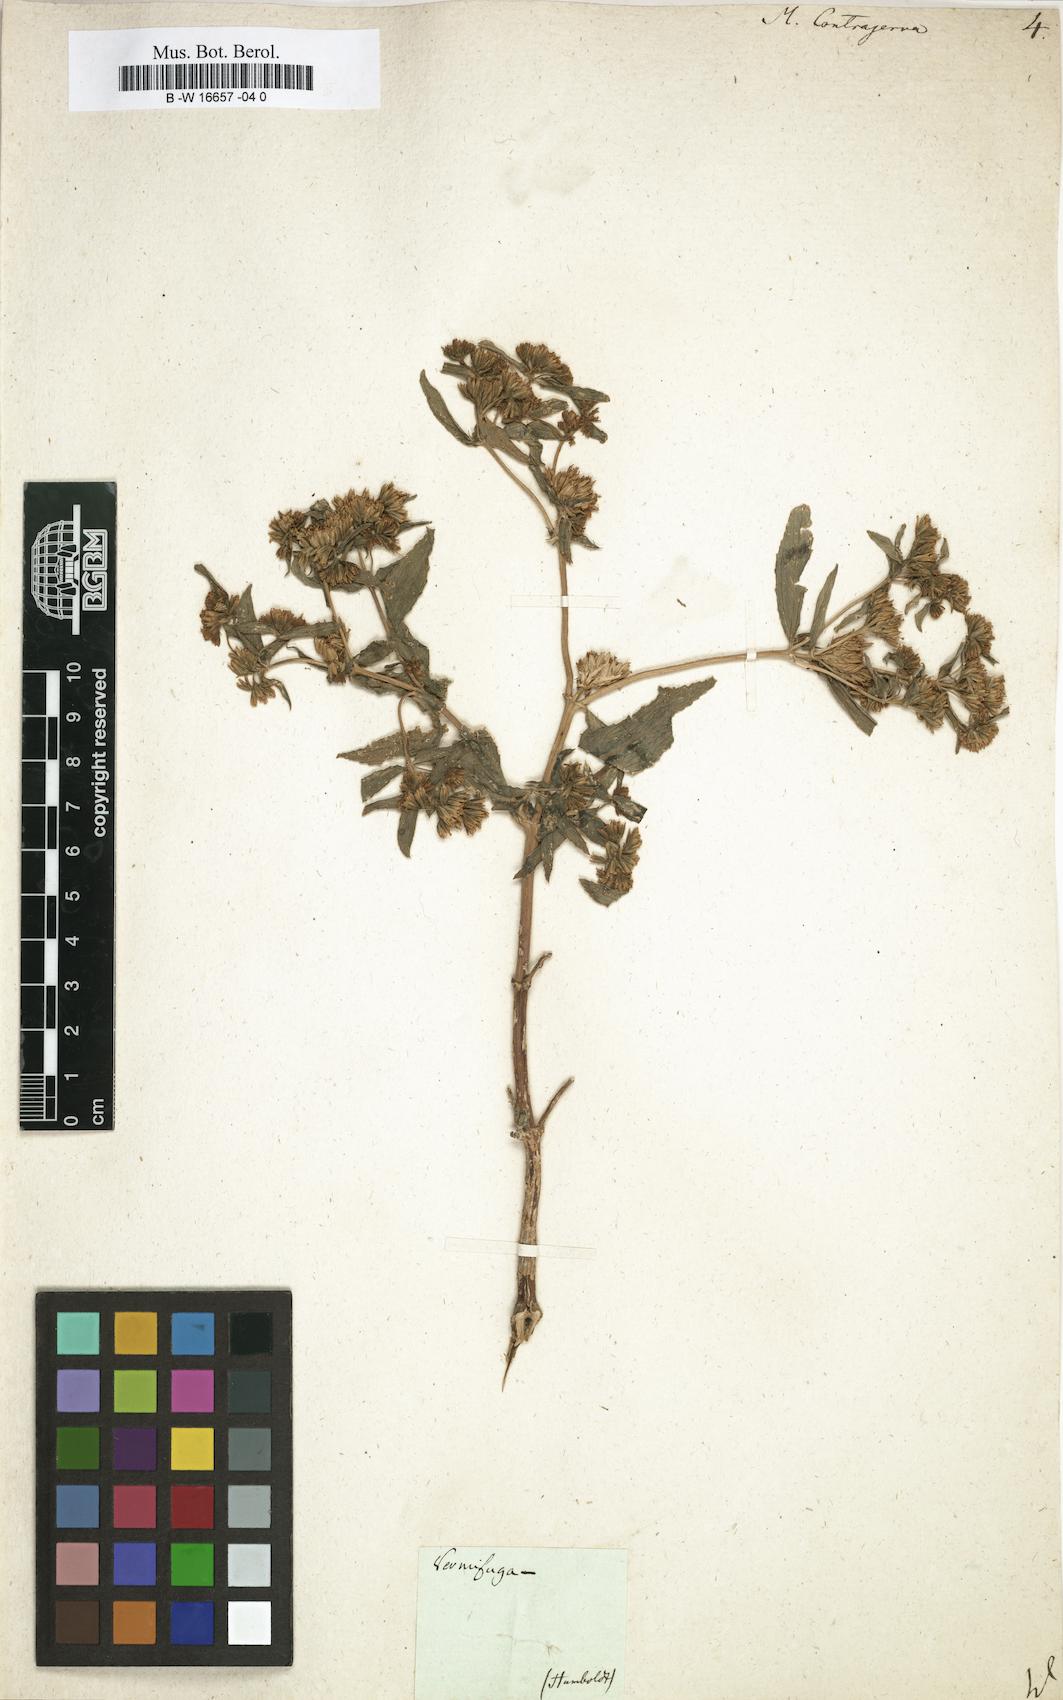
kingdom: Plantae
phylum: Tracheophyta
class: Magnoliopsida
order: Asterales
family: Asteraceae
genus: Flaveria
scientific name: Flaveria bidentis
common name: Coastal plain yellowtops
